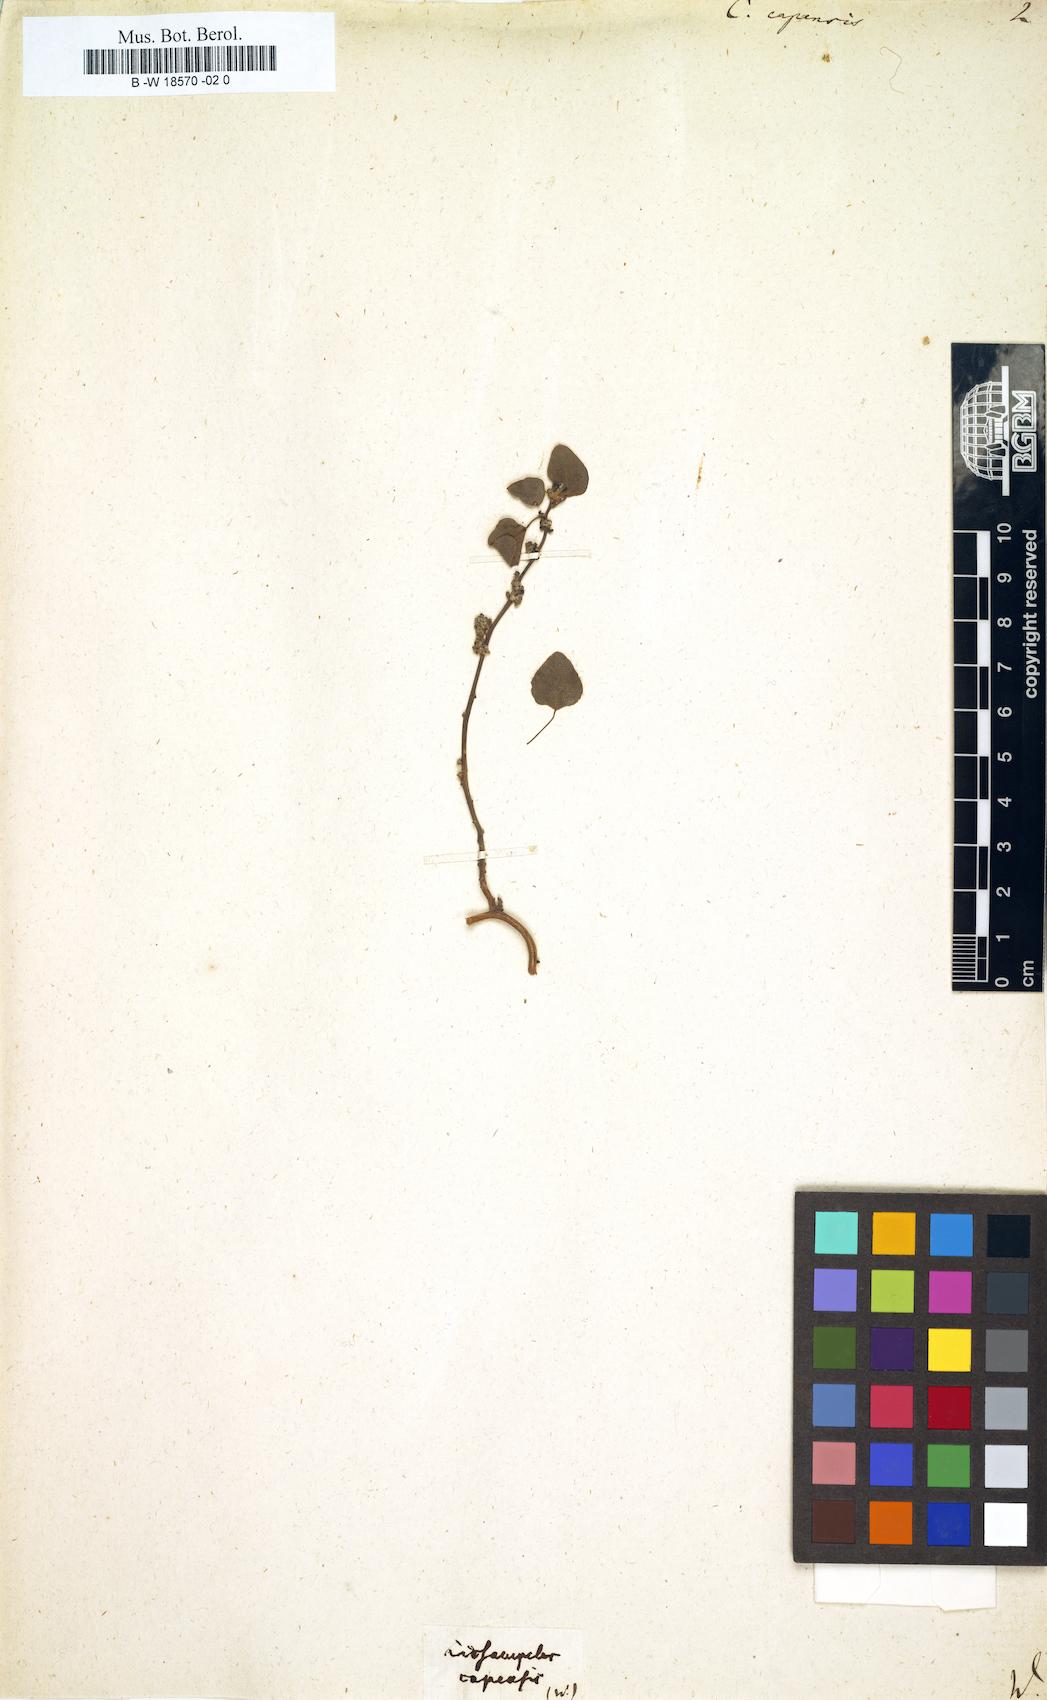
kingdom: Plantae
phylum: Tracheophyta
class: Magnoliopsida
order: Ranunculales
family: Menispermaceae
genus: Cissampelos
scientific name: Cissampelos capensis
